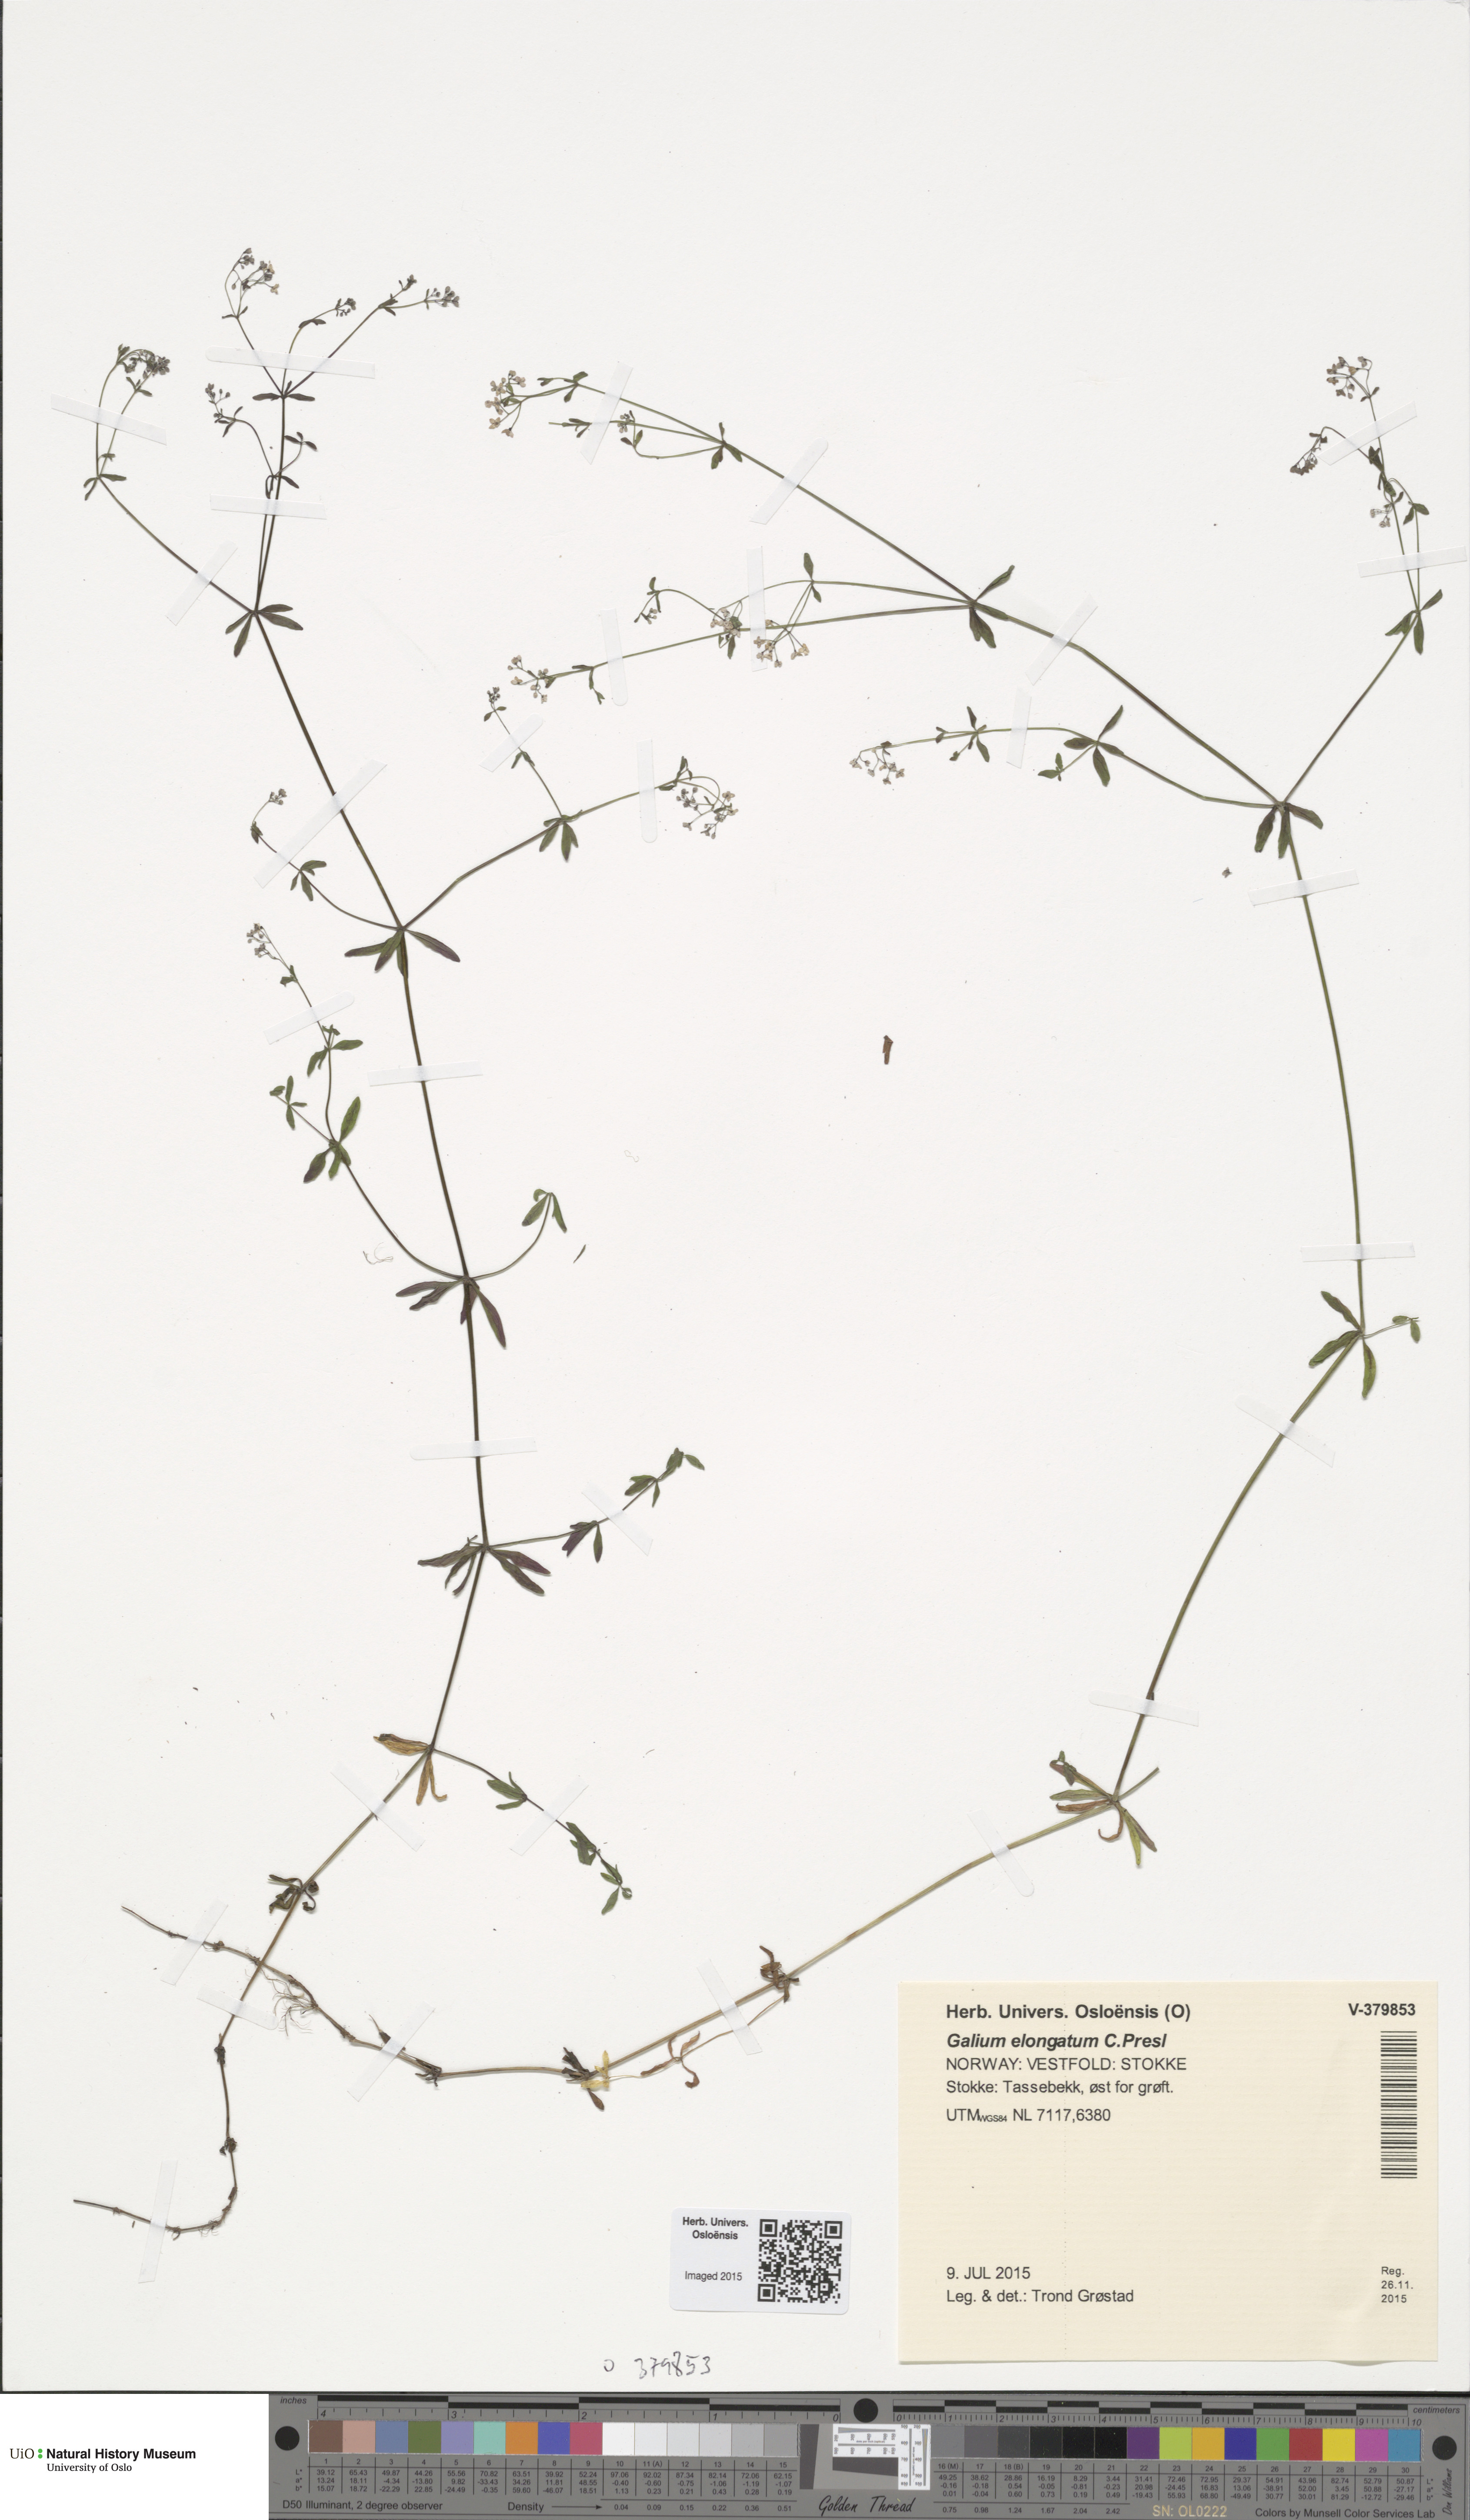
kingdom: Plantae
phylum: Tracheophyta
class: Magnoliopsida
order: Gentianales
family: Rubiaceae
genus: Galium
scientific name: Galium elongatum
